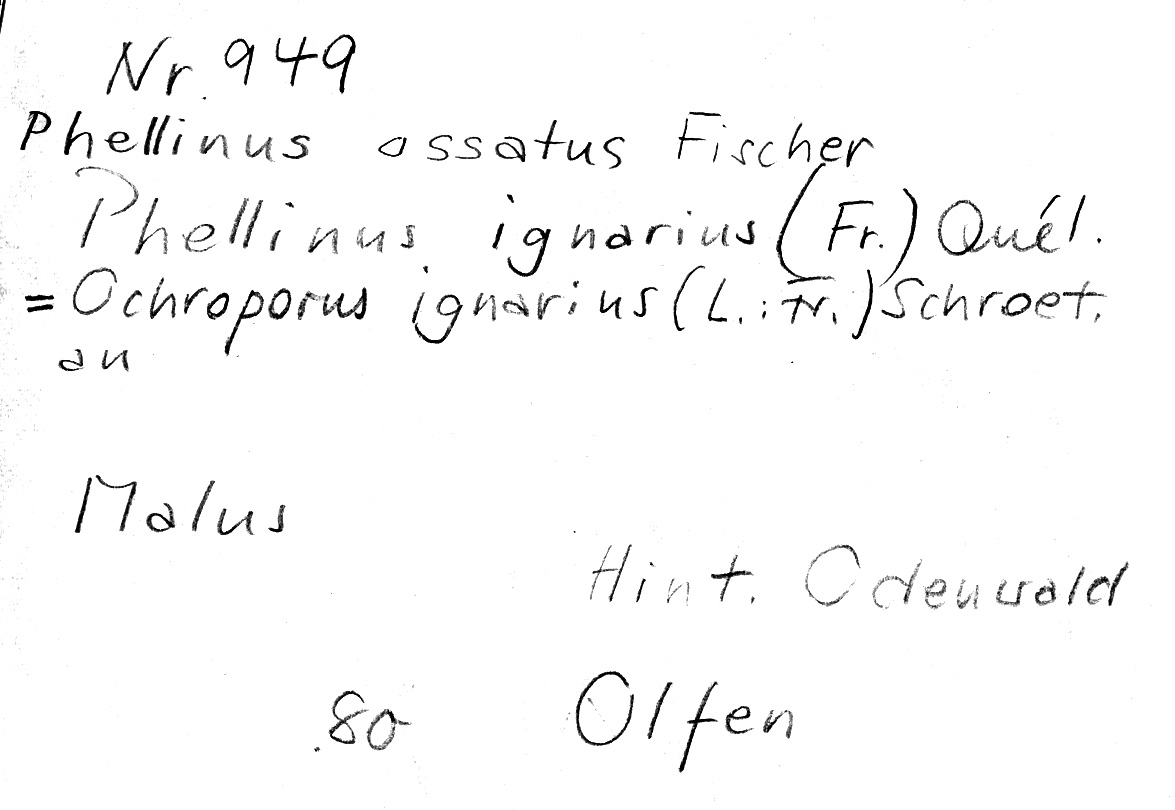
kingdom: Plantae
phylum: Tracheophyta
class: Magnoliopsida
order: Rosales
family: Rosaceae
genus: Malus
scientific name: Malus
